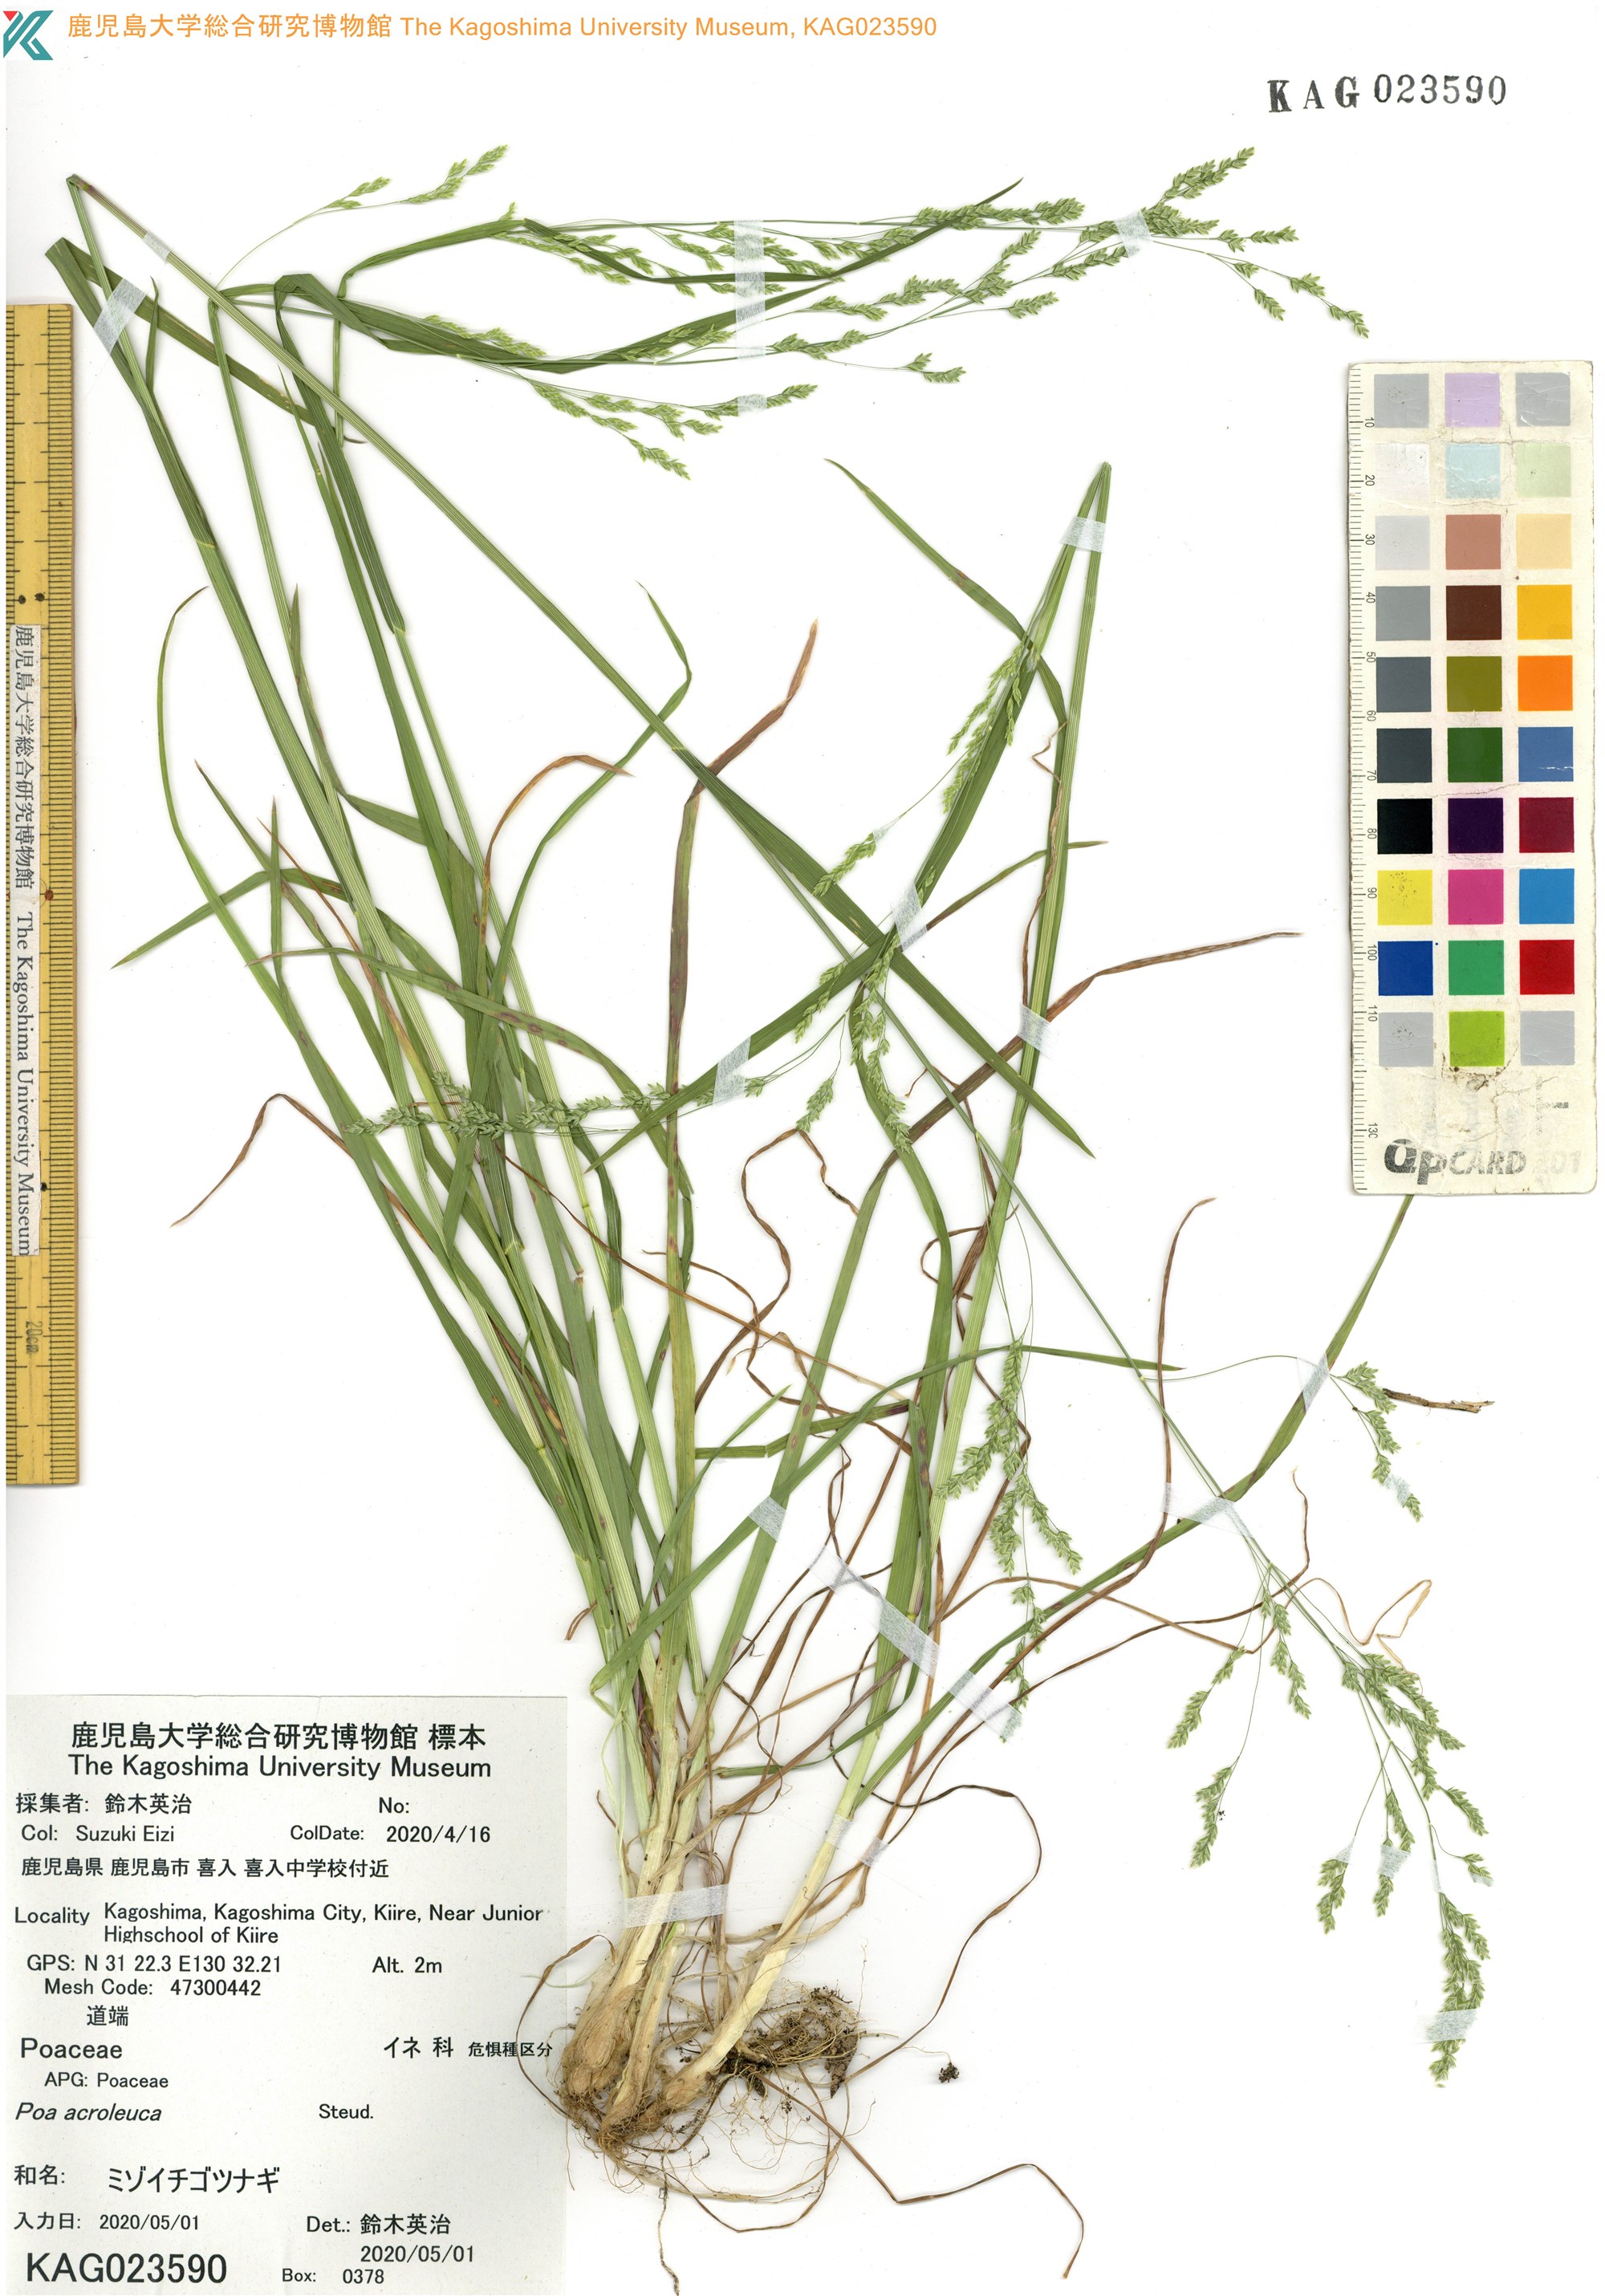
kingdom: Plantae
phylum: Tracheophyta
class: Liliopsida
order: Poales
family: Poaceae
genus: Poa
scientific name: Poa acroleuca
